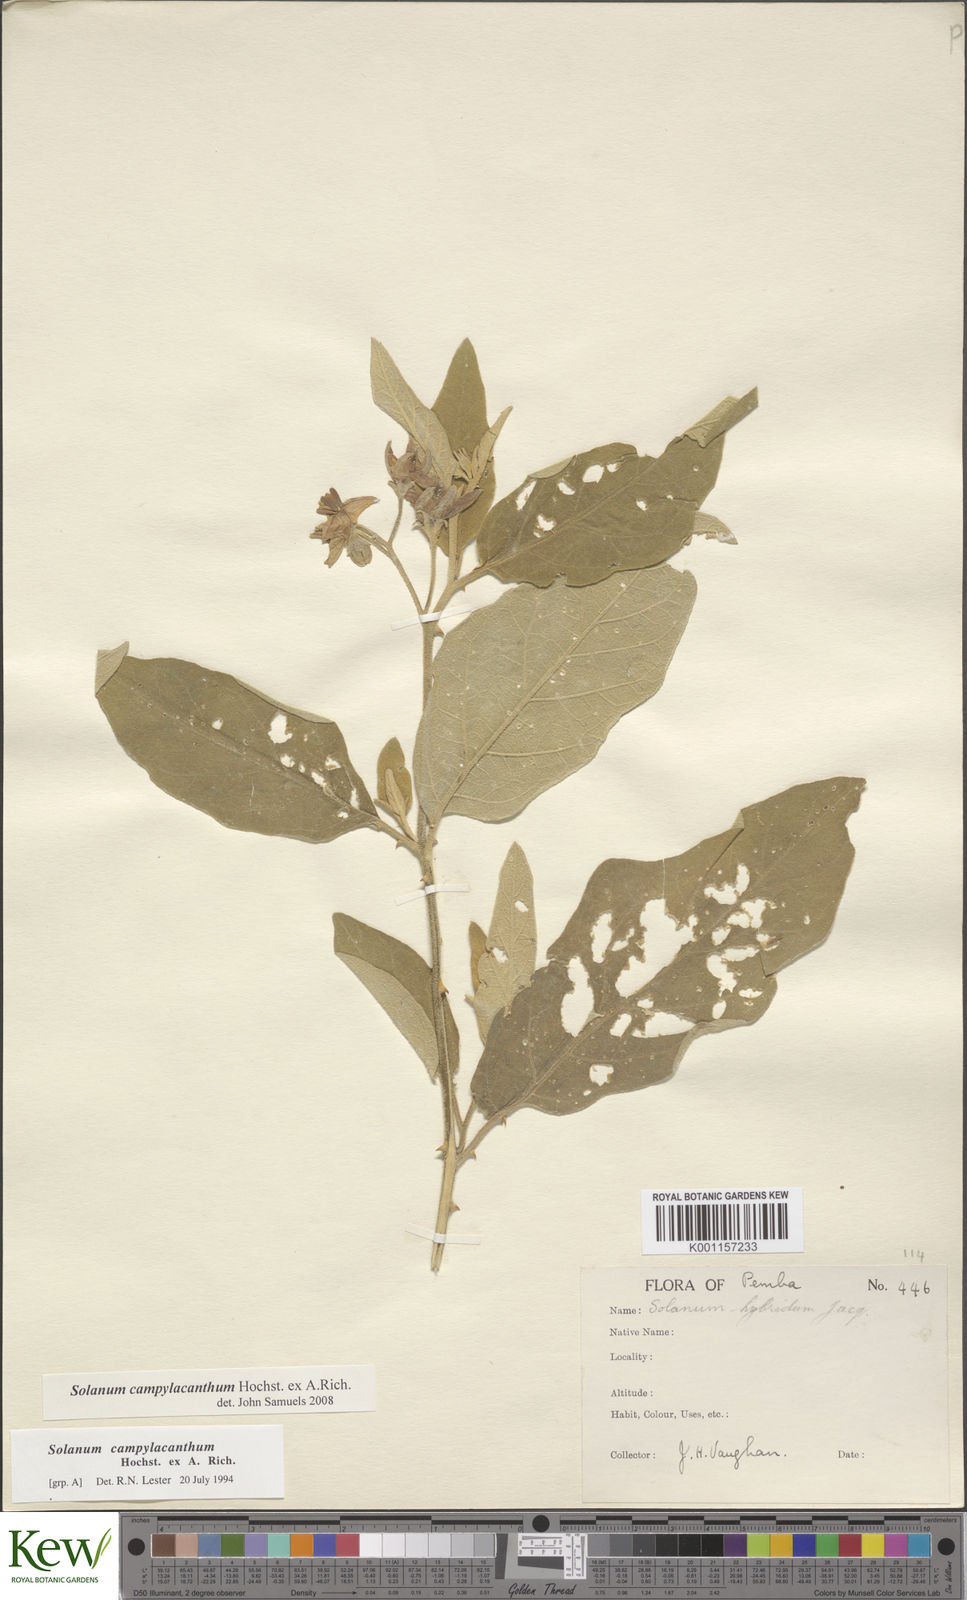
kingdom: Plantae
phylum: Tracheophyta
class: Magnoliopsida
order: Solanales
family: Solanaceae
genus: Solanum
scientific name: Solanum campylacanthum
